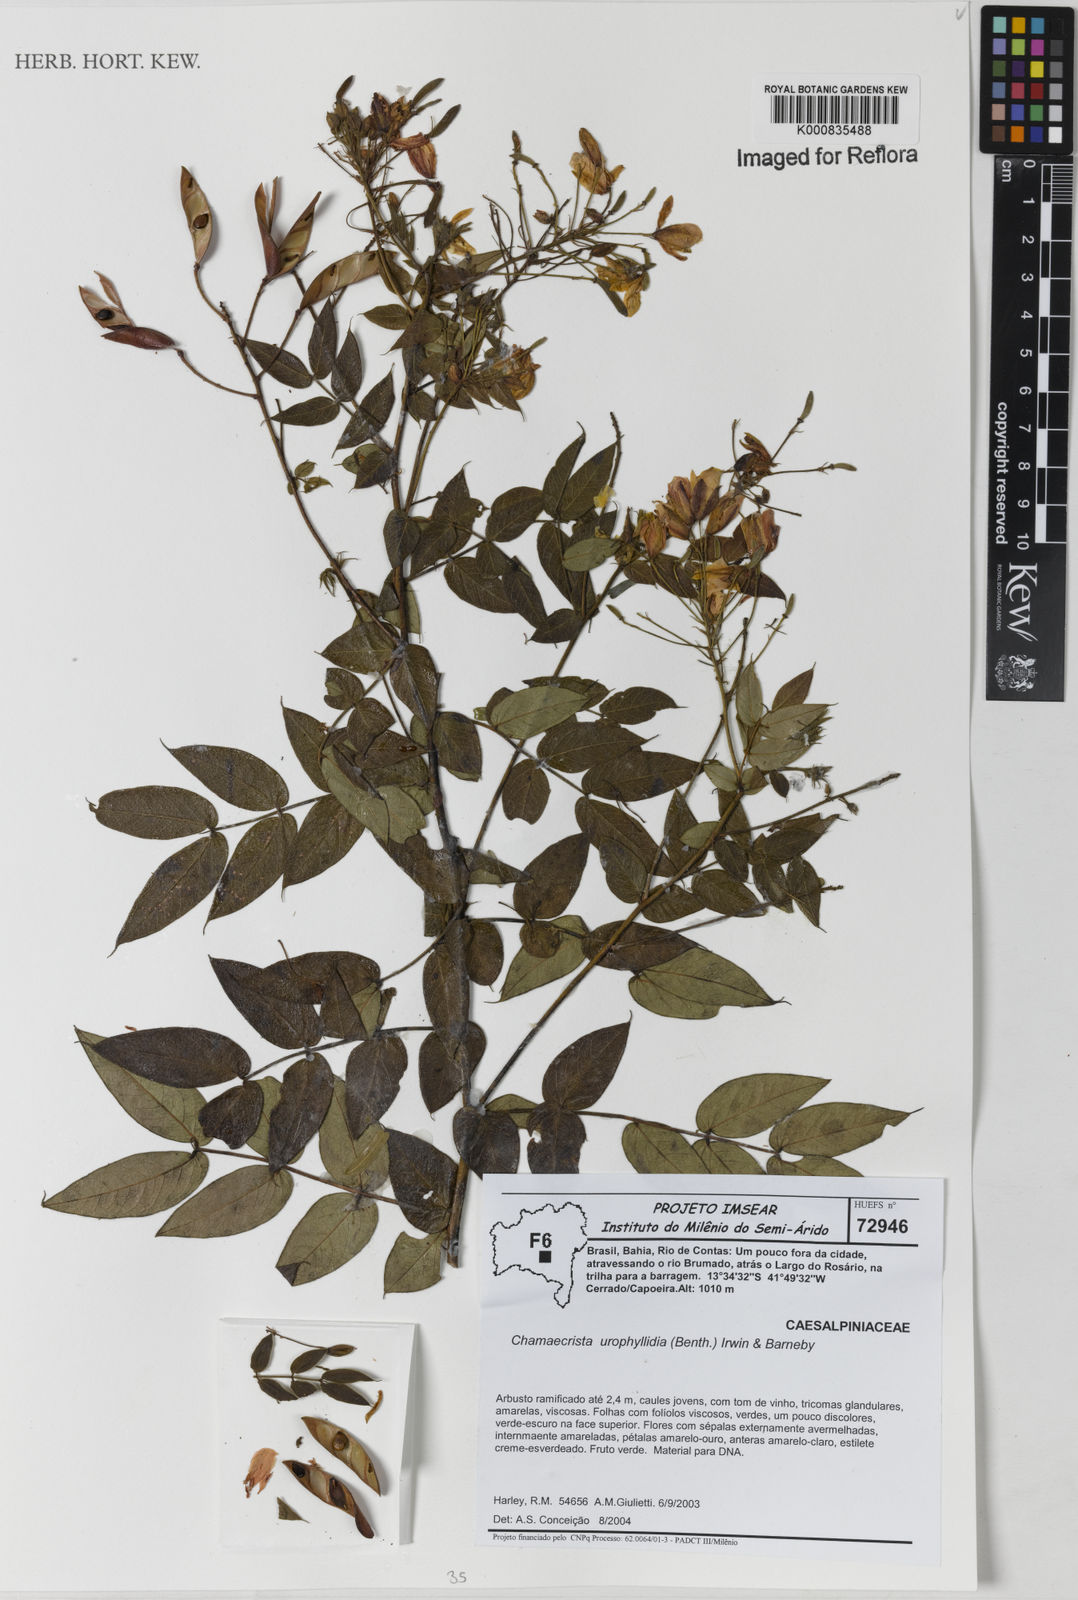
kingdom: Plantae
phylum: Tracheophyta
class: Magnoliopsida
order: Fabales
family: Fabaceae
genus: Chamaecrista
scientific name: Chamaecrista sophoroides
